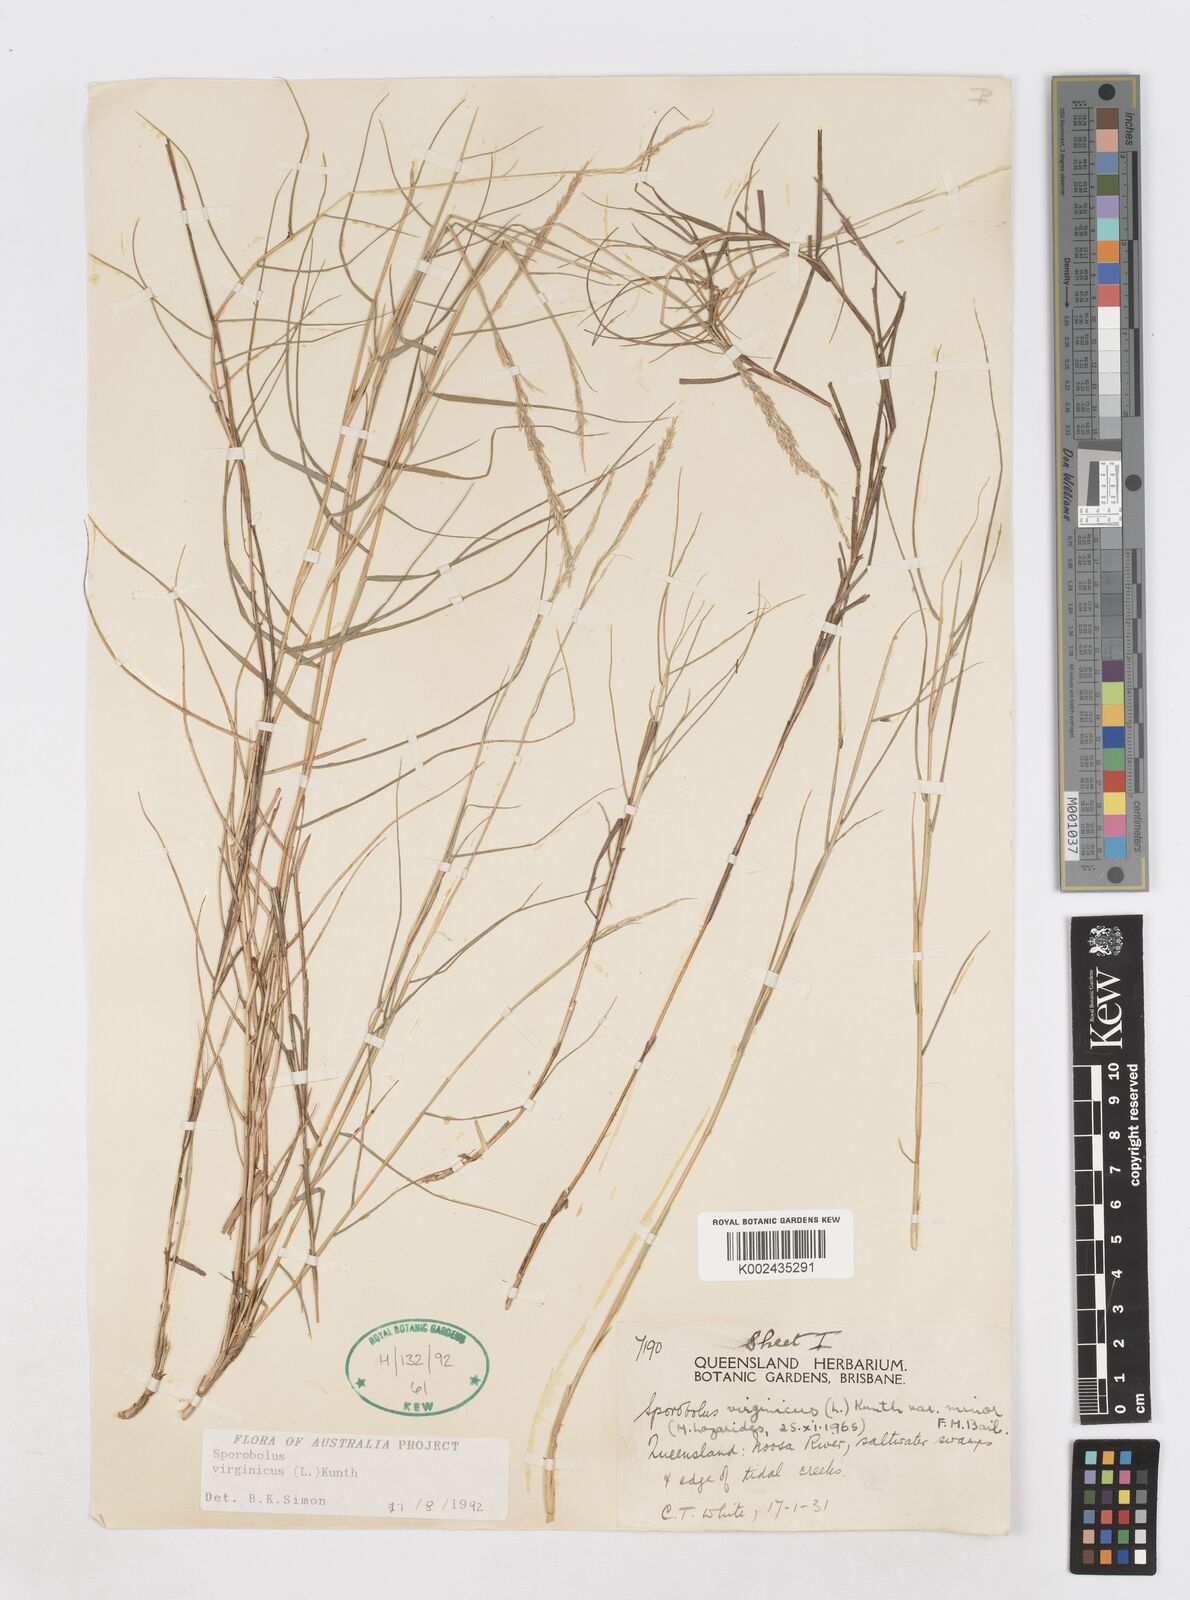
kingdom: Plantae
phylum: Tracheophyta
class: Liliopsida
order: Poales
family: Poaceae
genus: Sporobolus
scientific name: Sporobolus virginicus
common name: Beach dropseed
